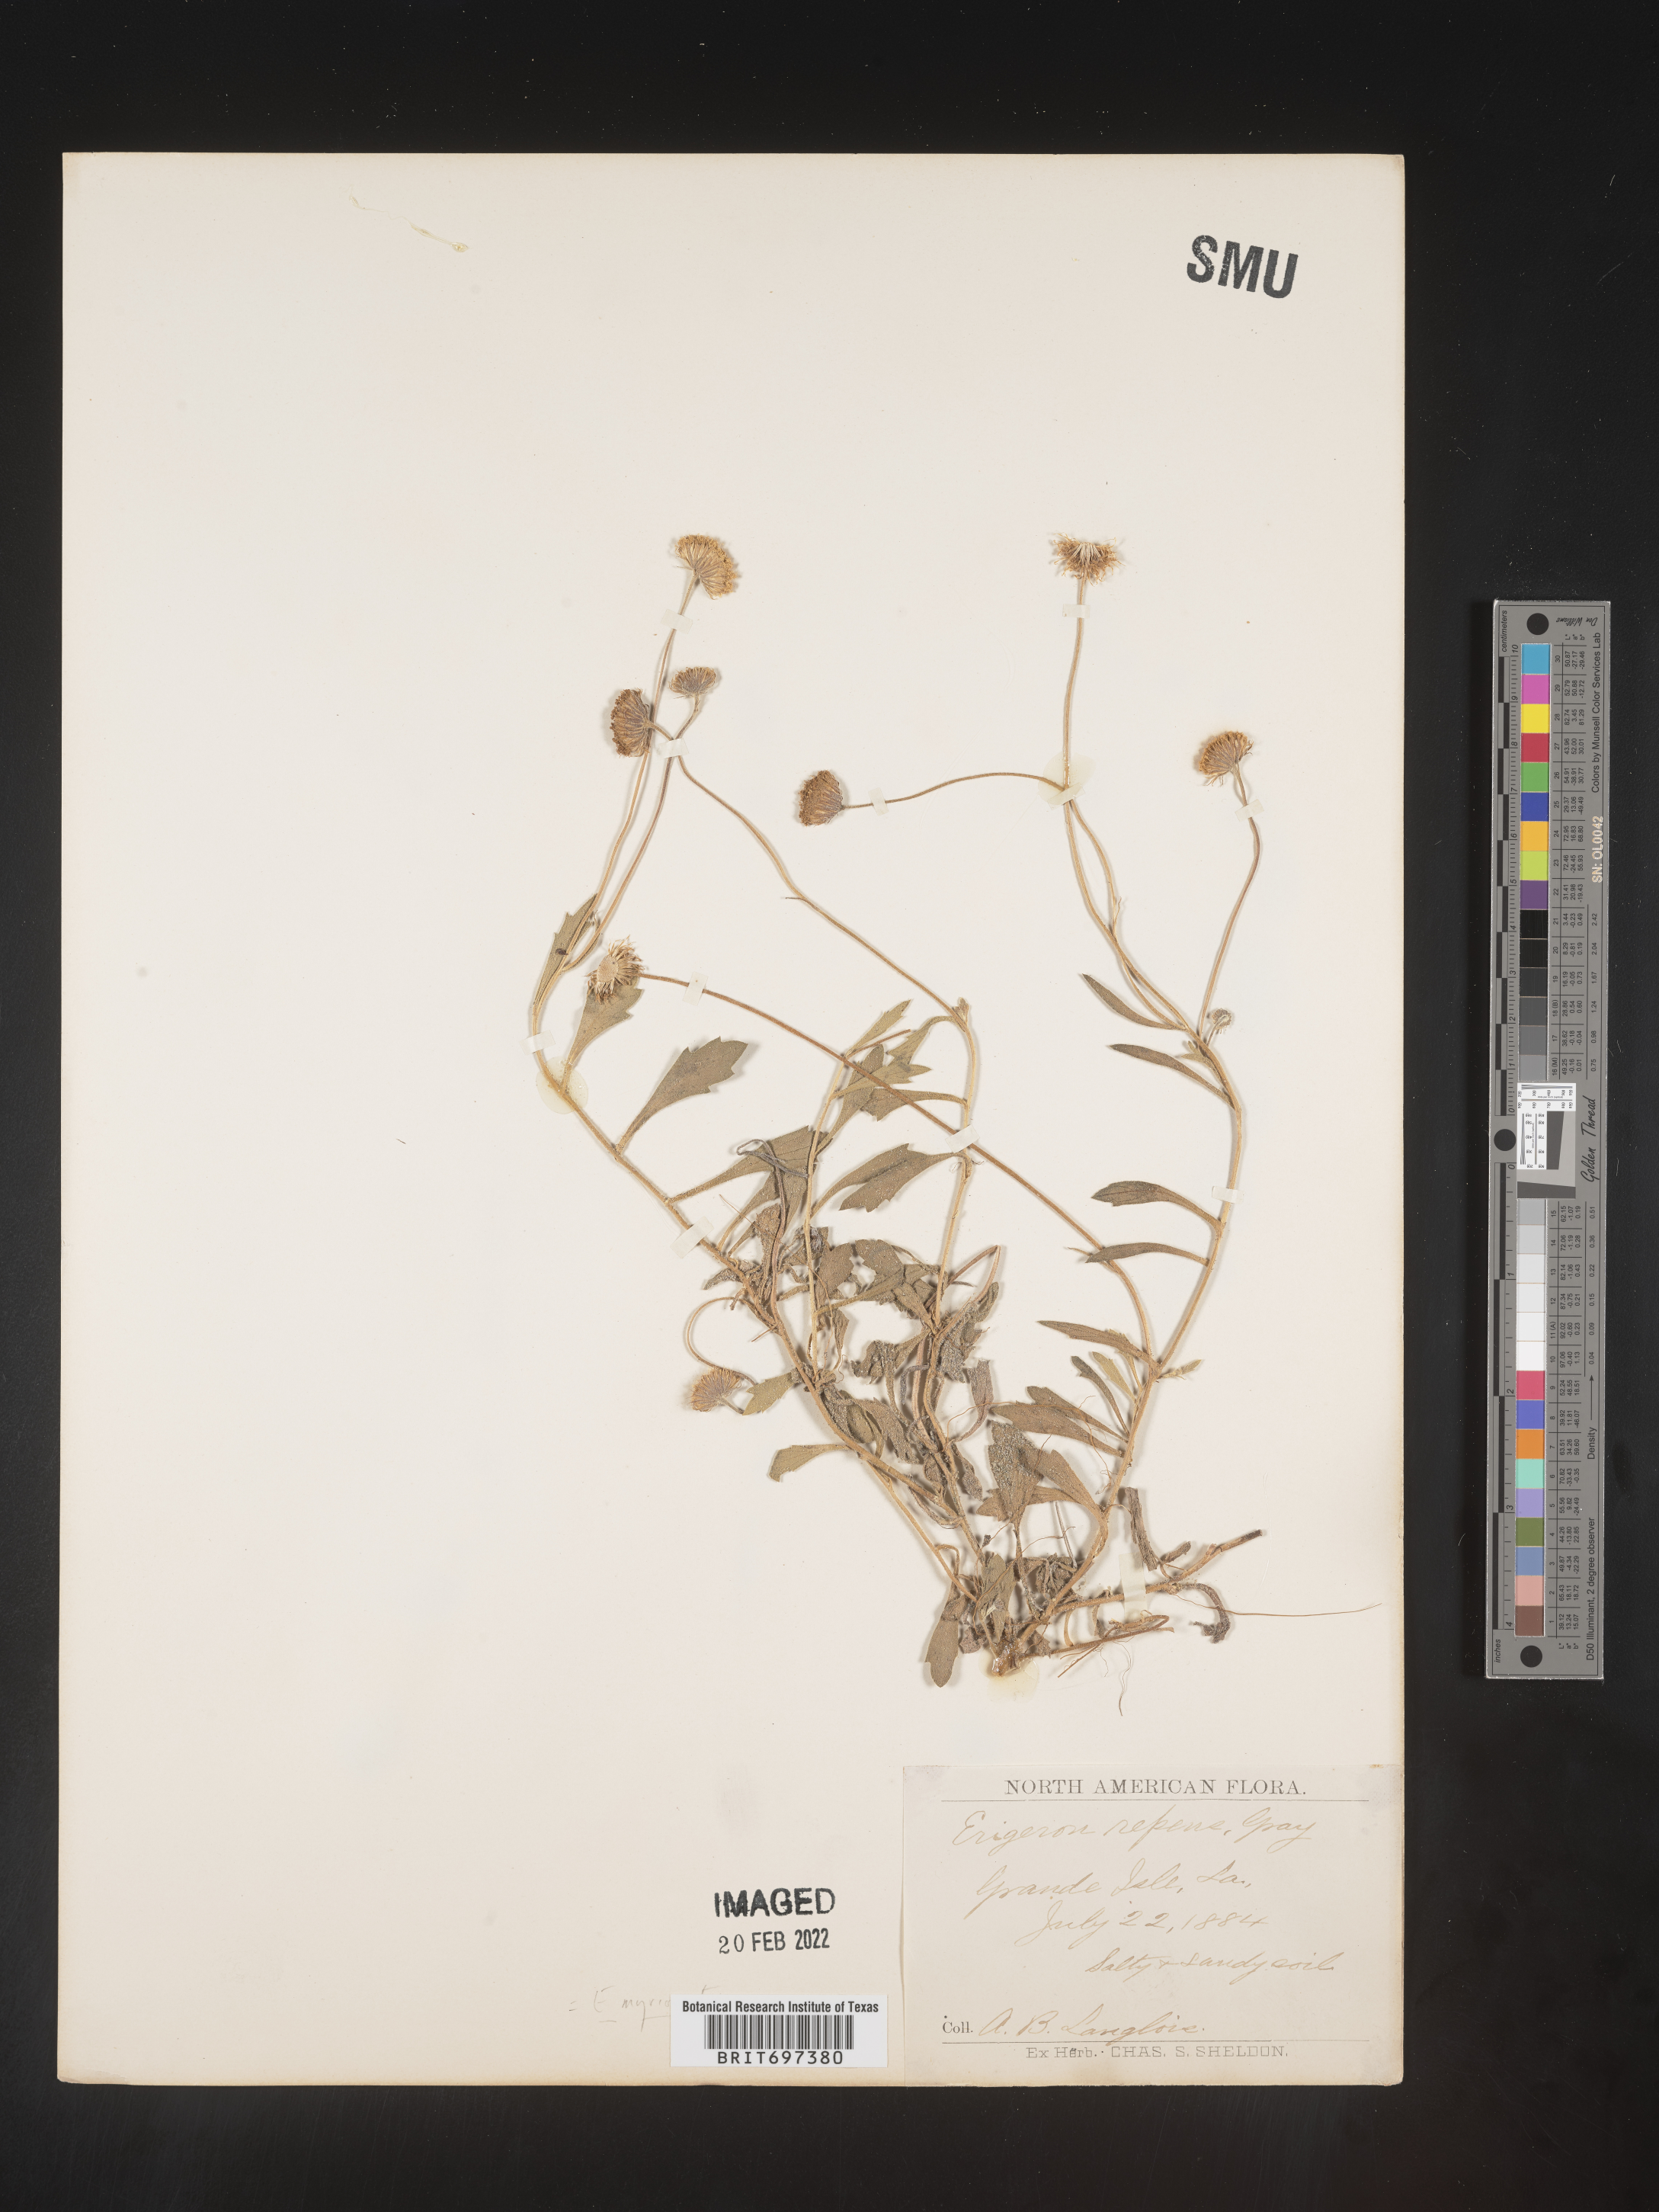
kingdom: Plantae
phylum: Tracheophyta
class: Magnoliopsida
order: Asterales
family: Asteraceae
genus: Erigeron
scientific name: Erigeron procumbens
